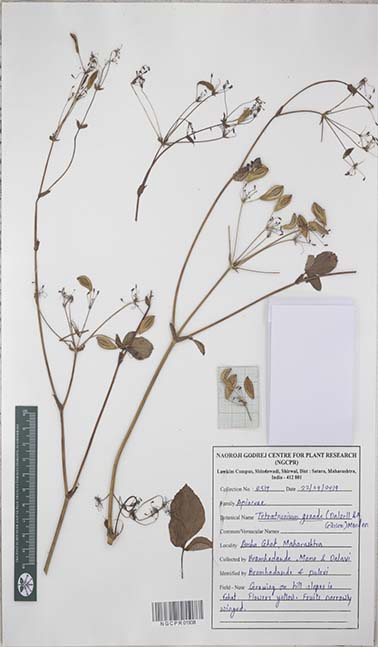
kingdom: Plantae
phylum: Tracheophyta
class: Magnoliopsida
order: Apiales
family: Apiaceae
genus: Tetrataenium
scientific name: Tetrataenium grande
